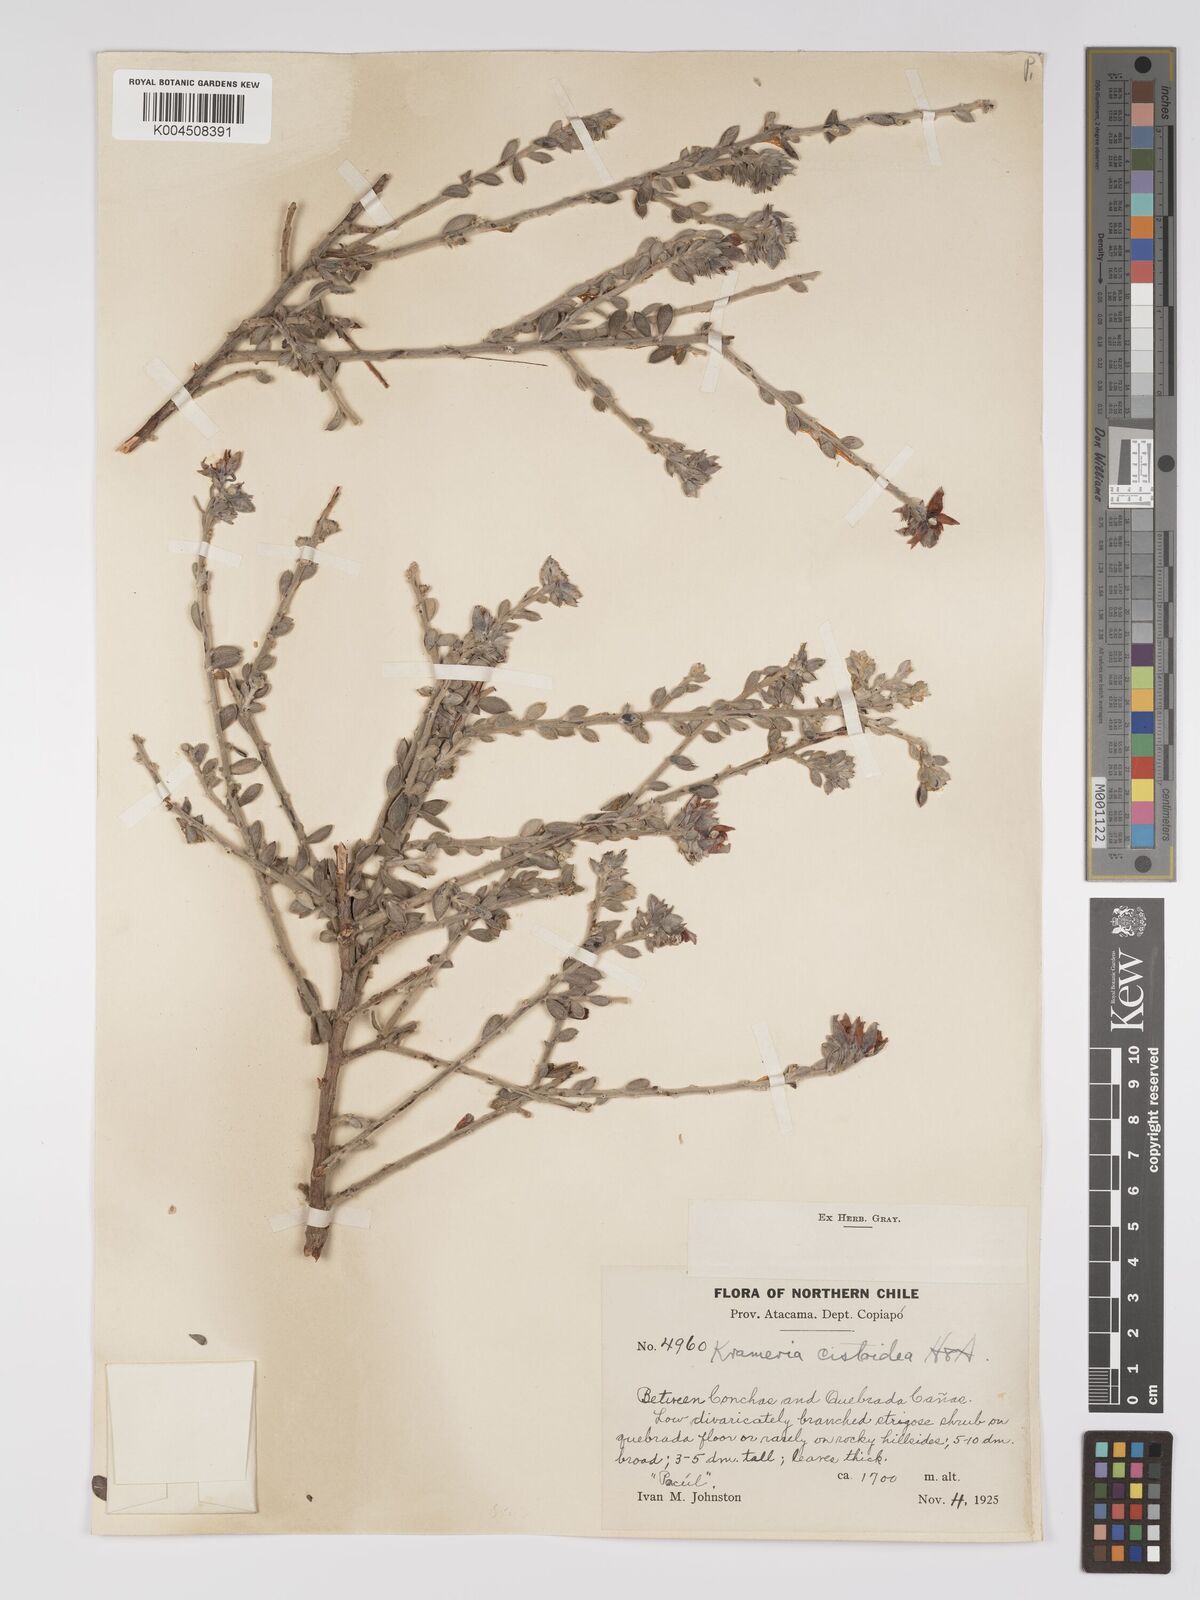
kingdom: Plantae
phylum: Tracheophyta
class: Magnoliopsida
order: Zygophyllales
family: Krameriaceae
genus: Krameria
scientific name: Krameria cistoidea
